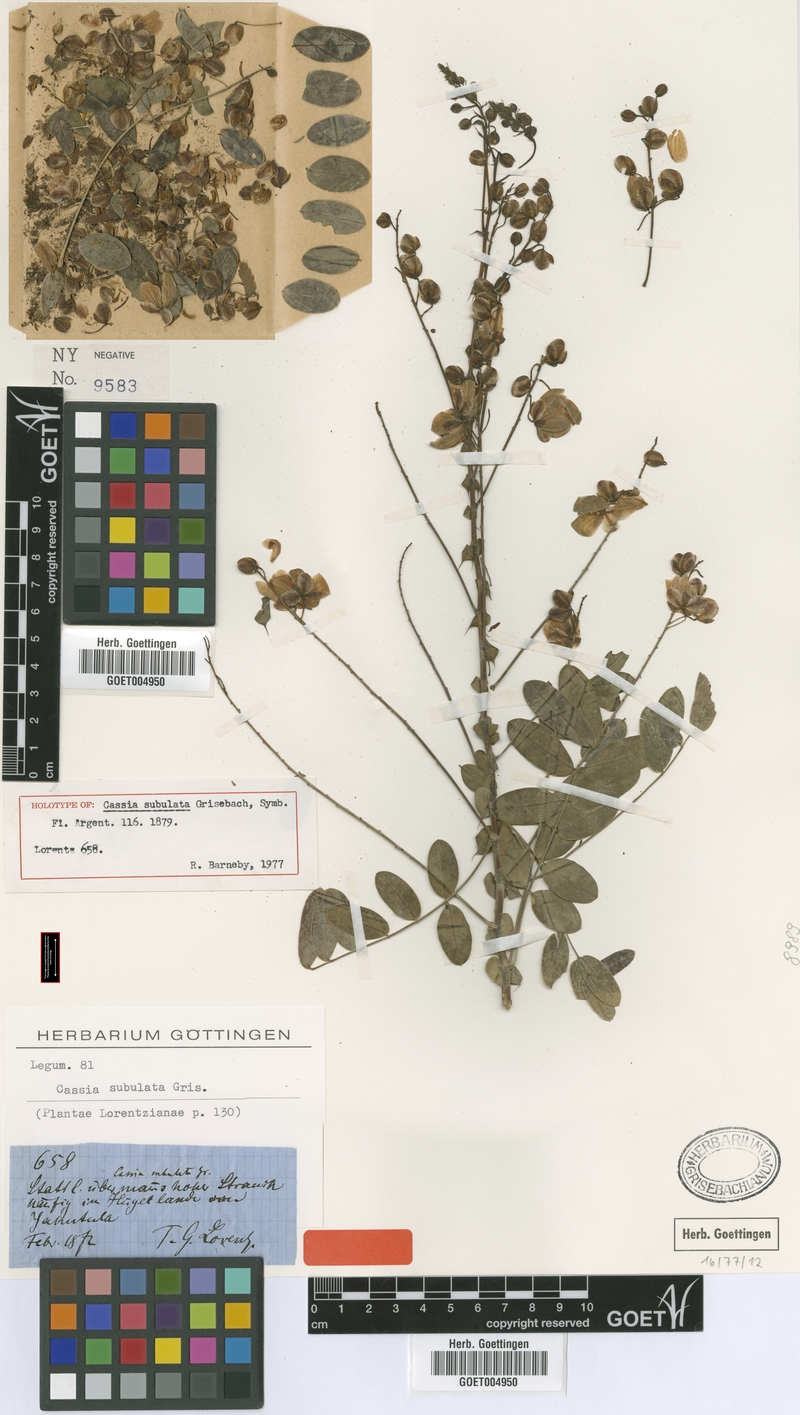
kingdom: Plantae
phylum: Tracheophyta
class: Magnoliopsida
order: Fabales
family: Fabaceae
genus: Senna
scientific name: Senna subulata
